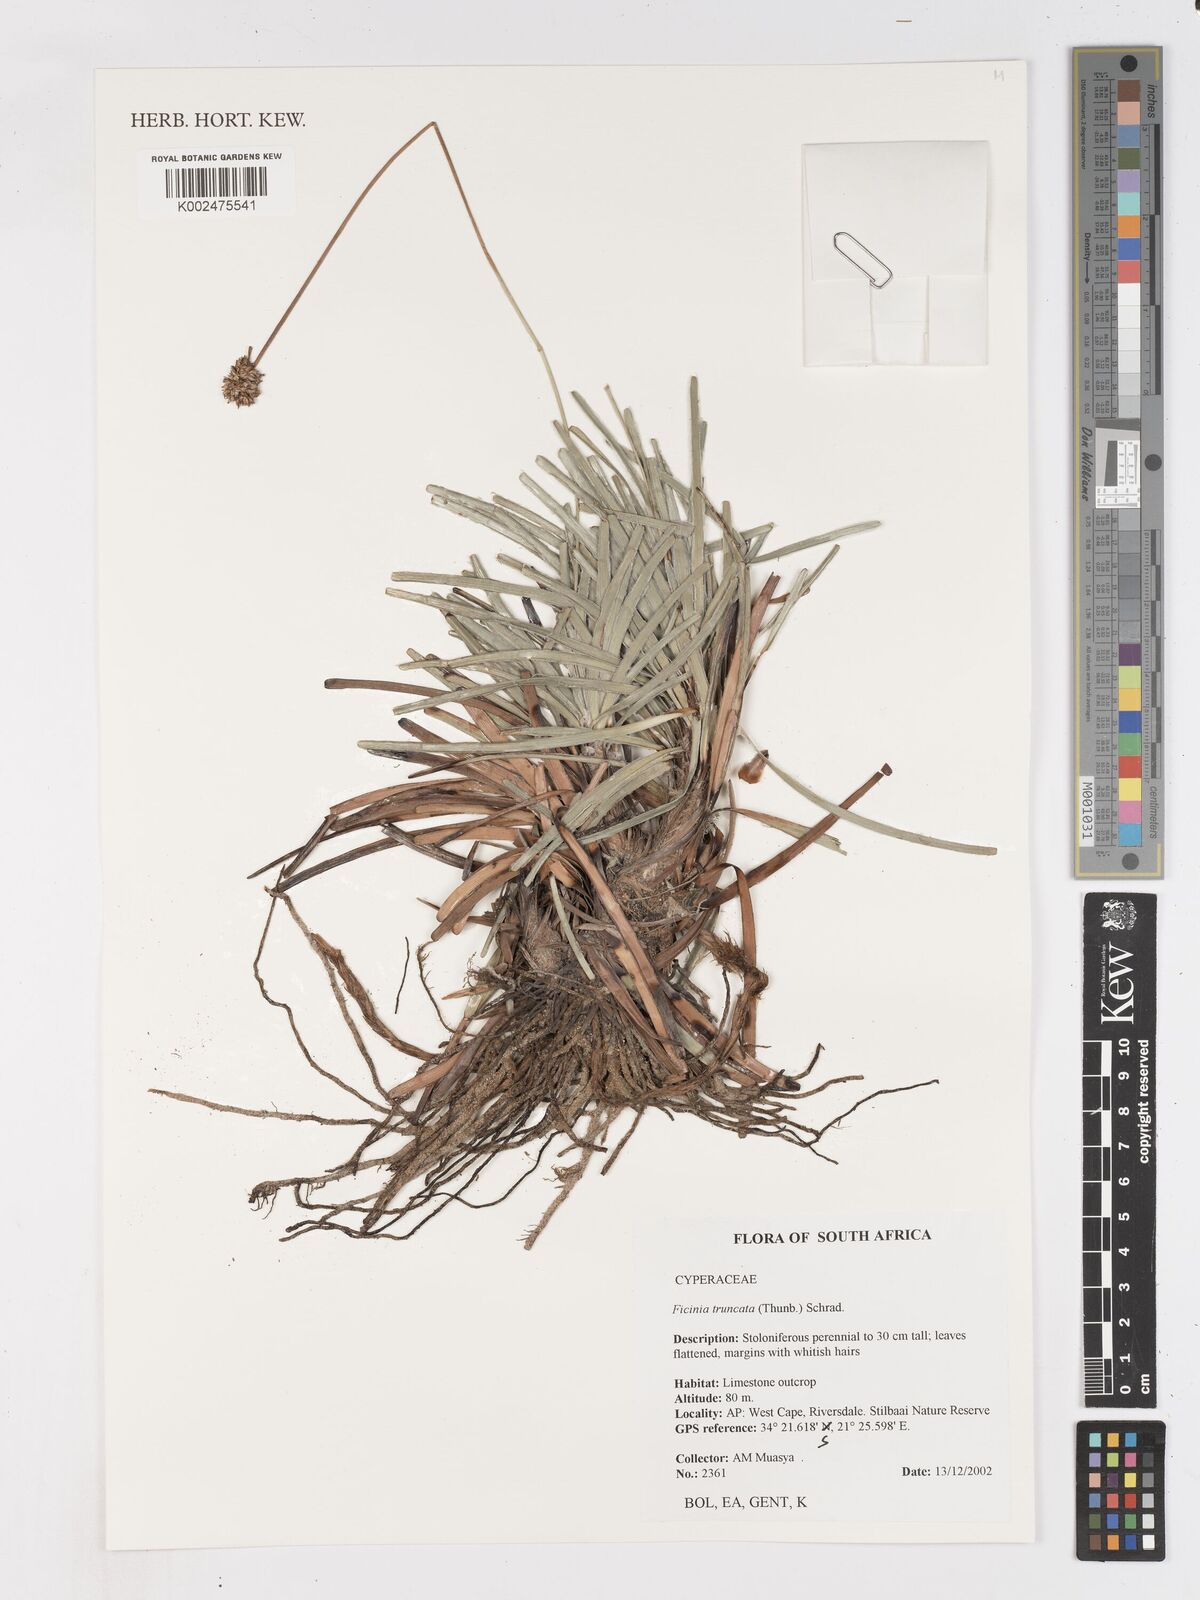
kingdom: Plantae
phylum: Tracheophyta
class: Liliopsida
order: Poales
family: Cyperaceae
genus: Ficinia
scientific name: Ficinia truncata
